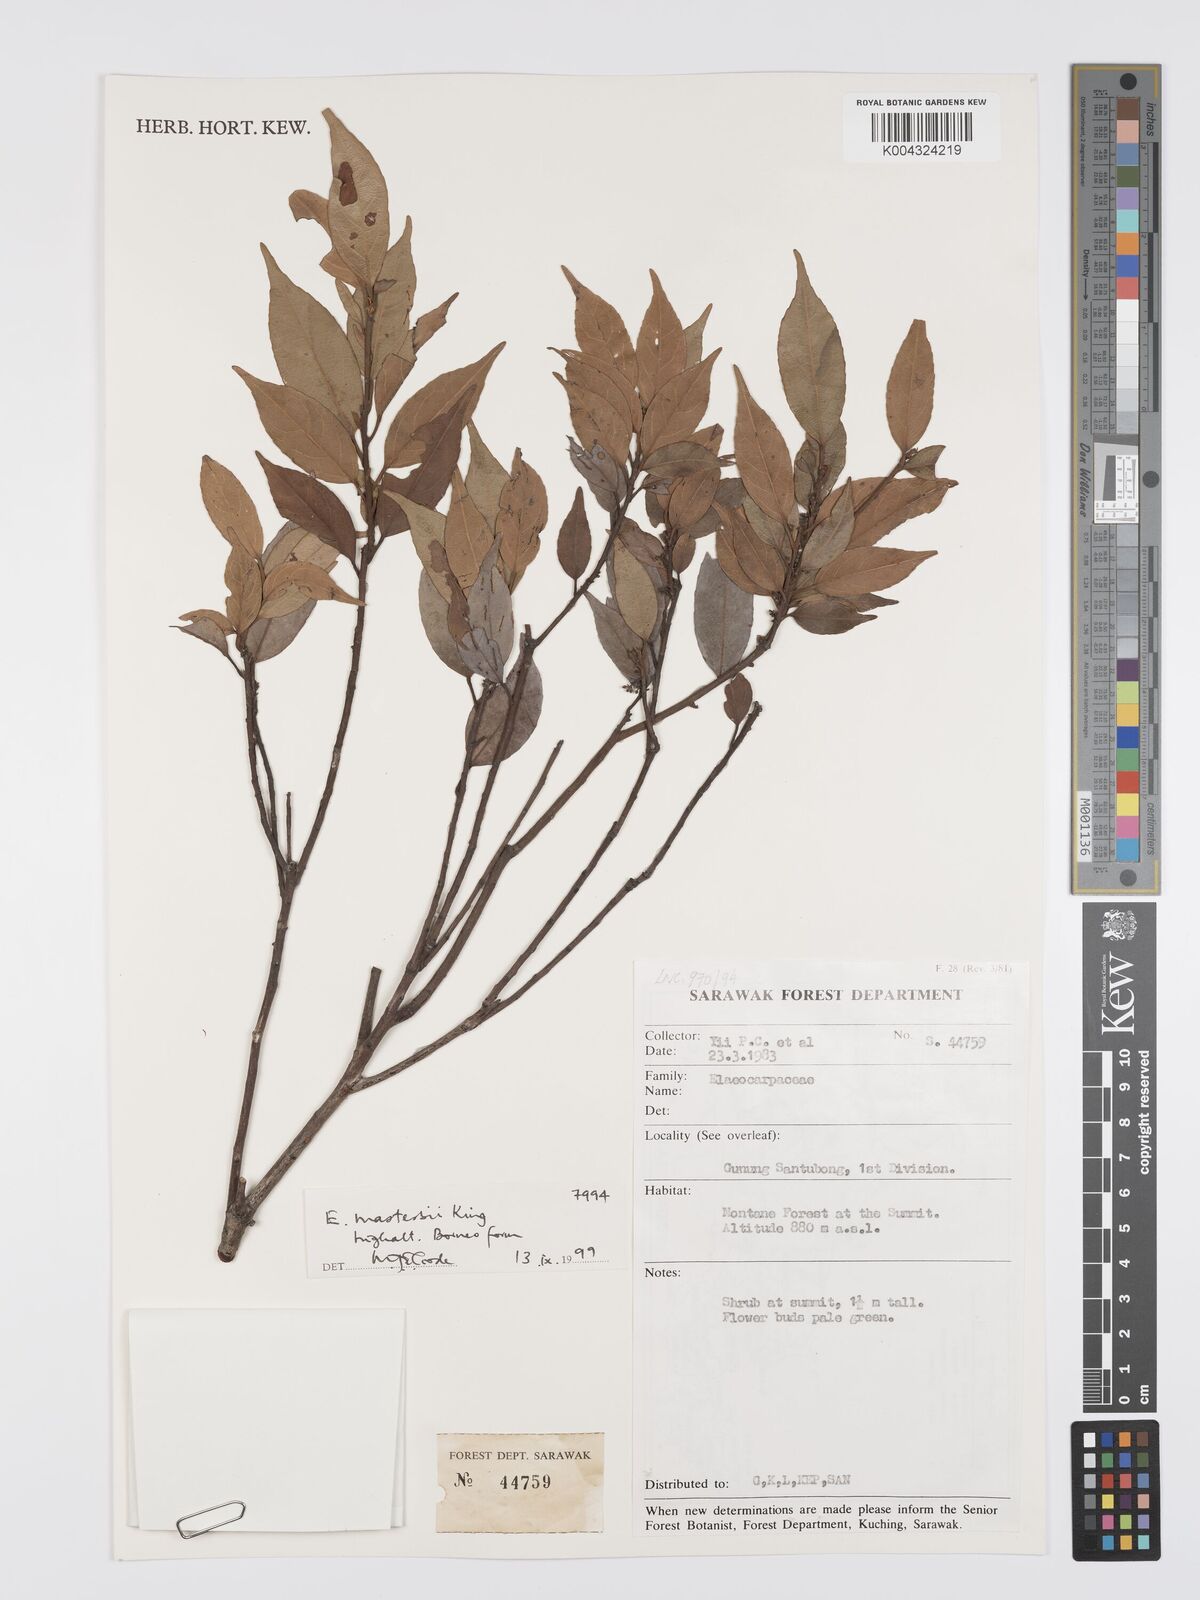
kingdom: Plantae
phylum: Tracheophyta
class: Magnoliopsida
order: Oxalidales
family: Elaeocarpaceae
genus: Elaeocarpus
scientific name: Elaeocarpus mastersii
